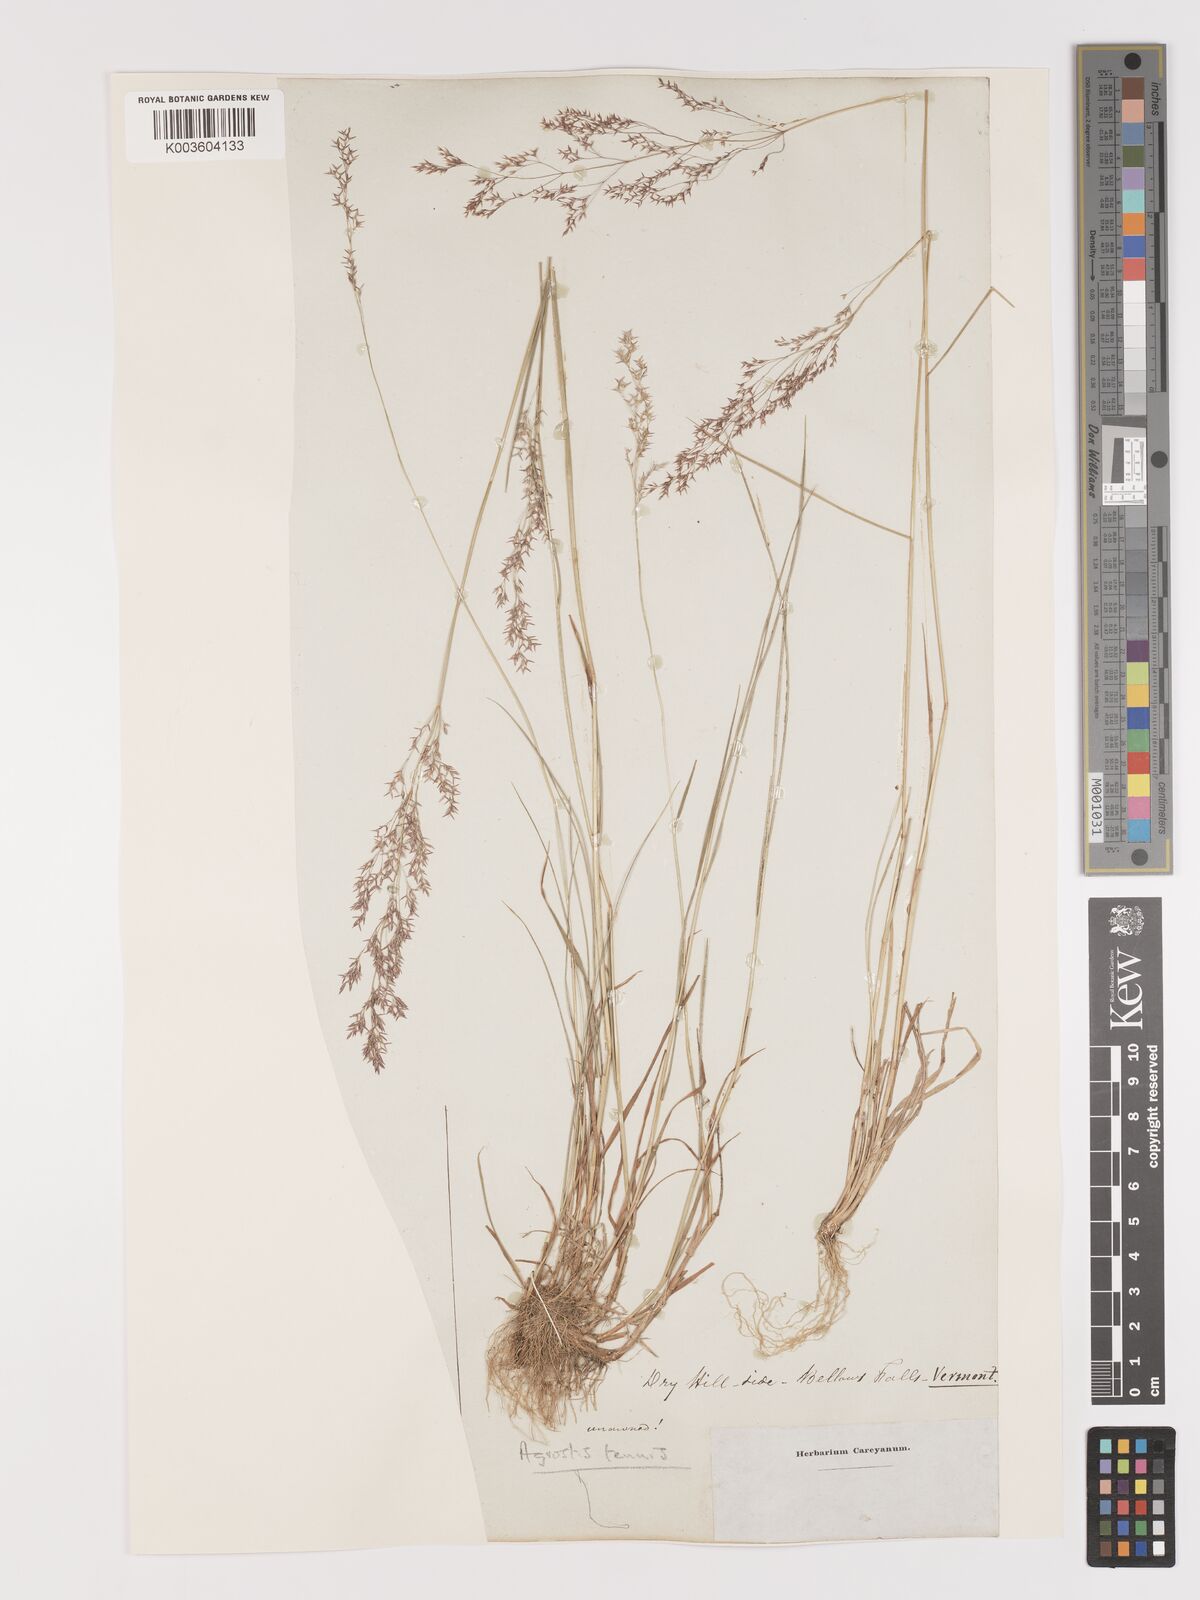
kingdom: Plantae
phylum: Tracheophyta
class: Liliopsida
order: Poales
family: Poaceae
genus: Agrostis
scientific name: Agrostis capillaris
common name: Colonial bentgrass
